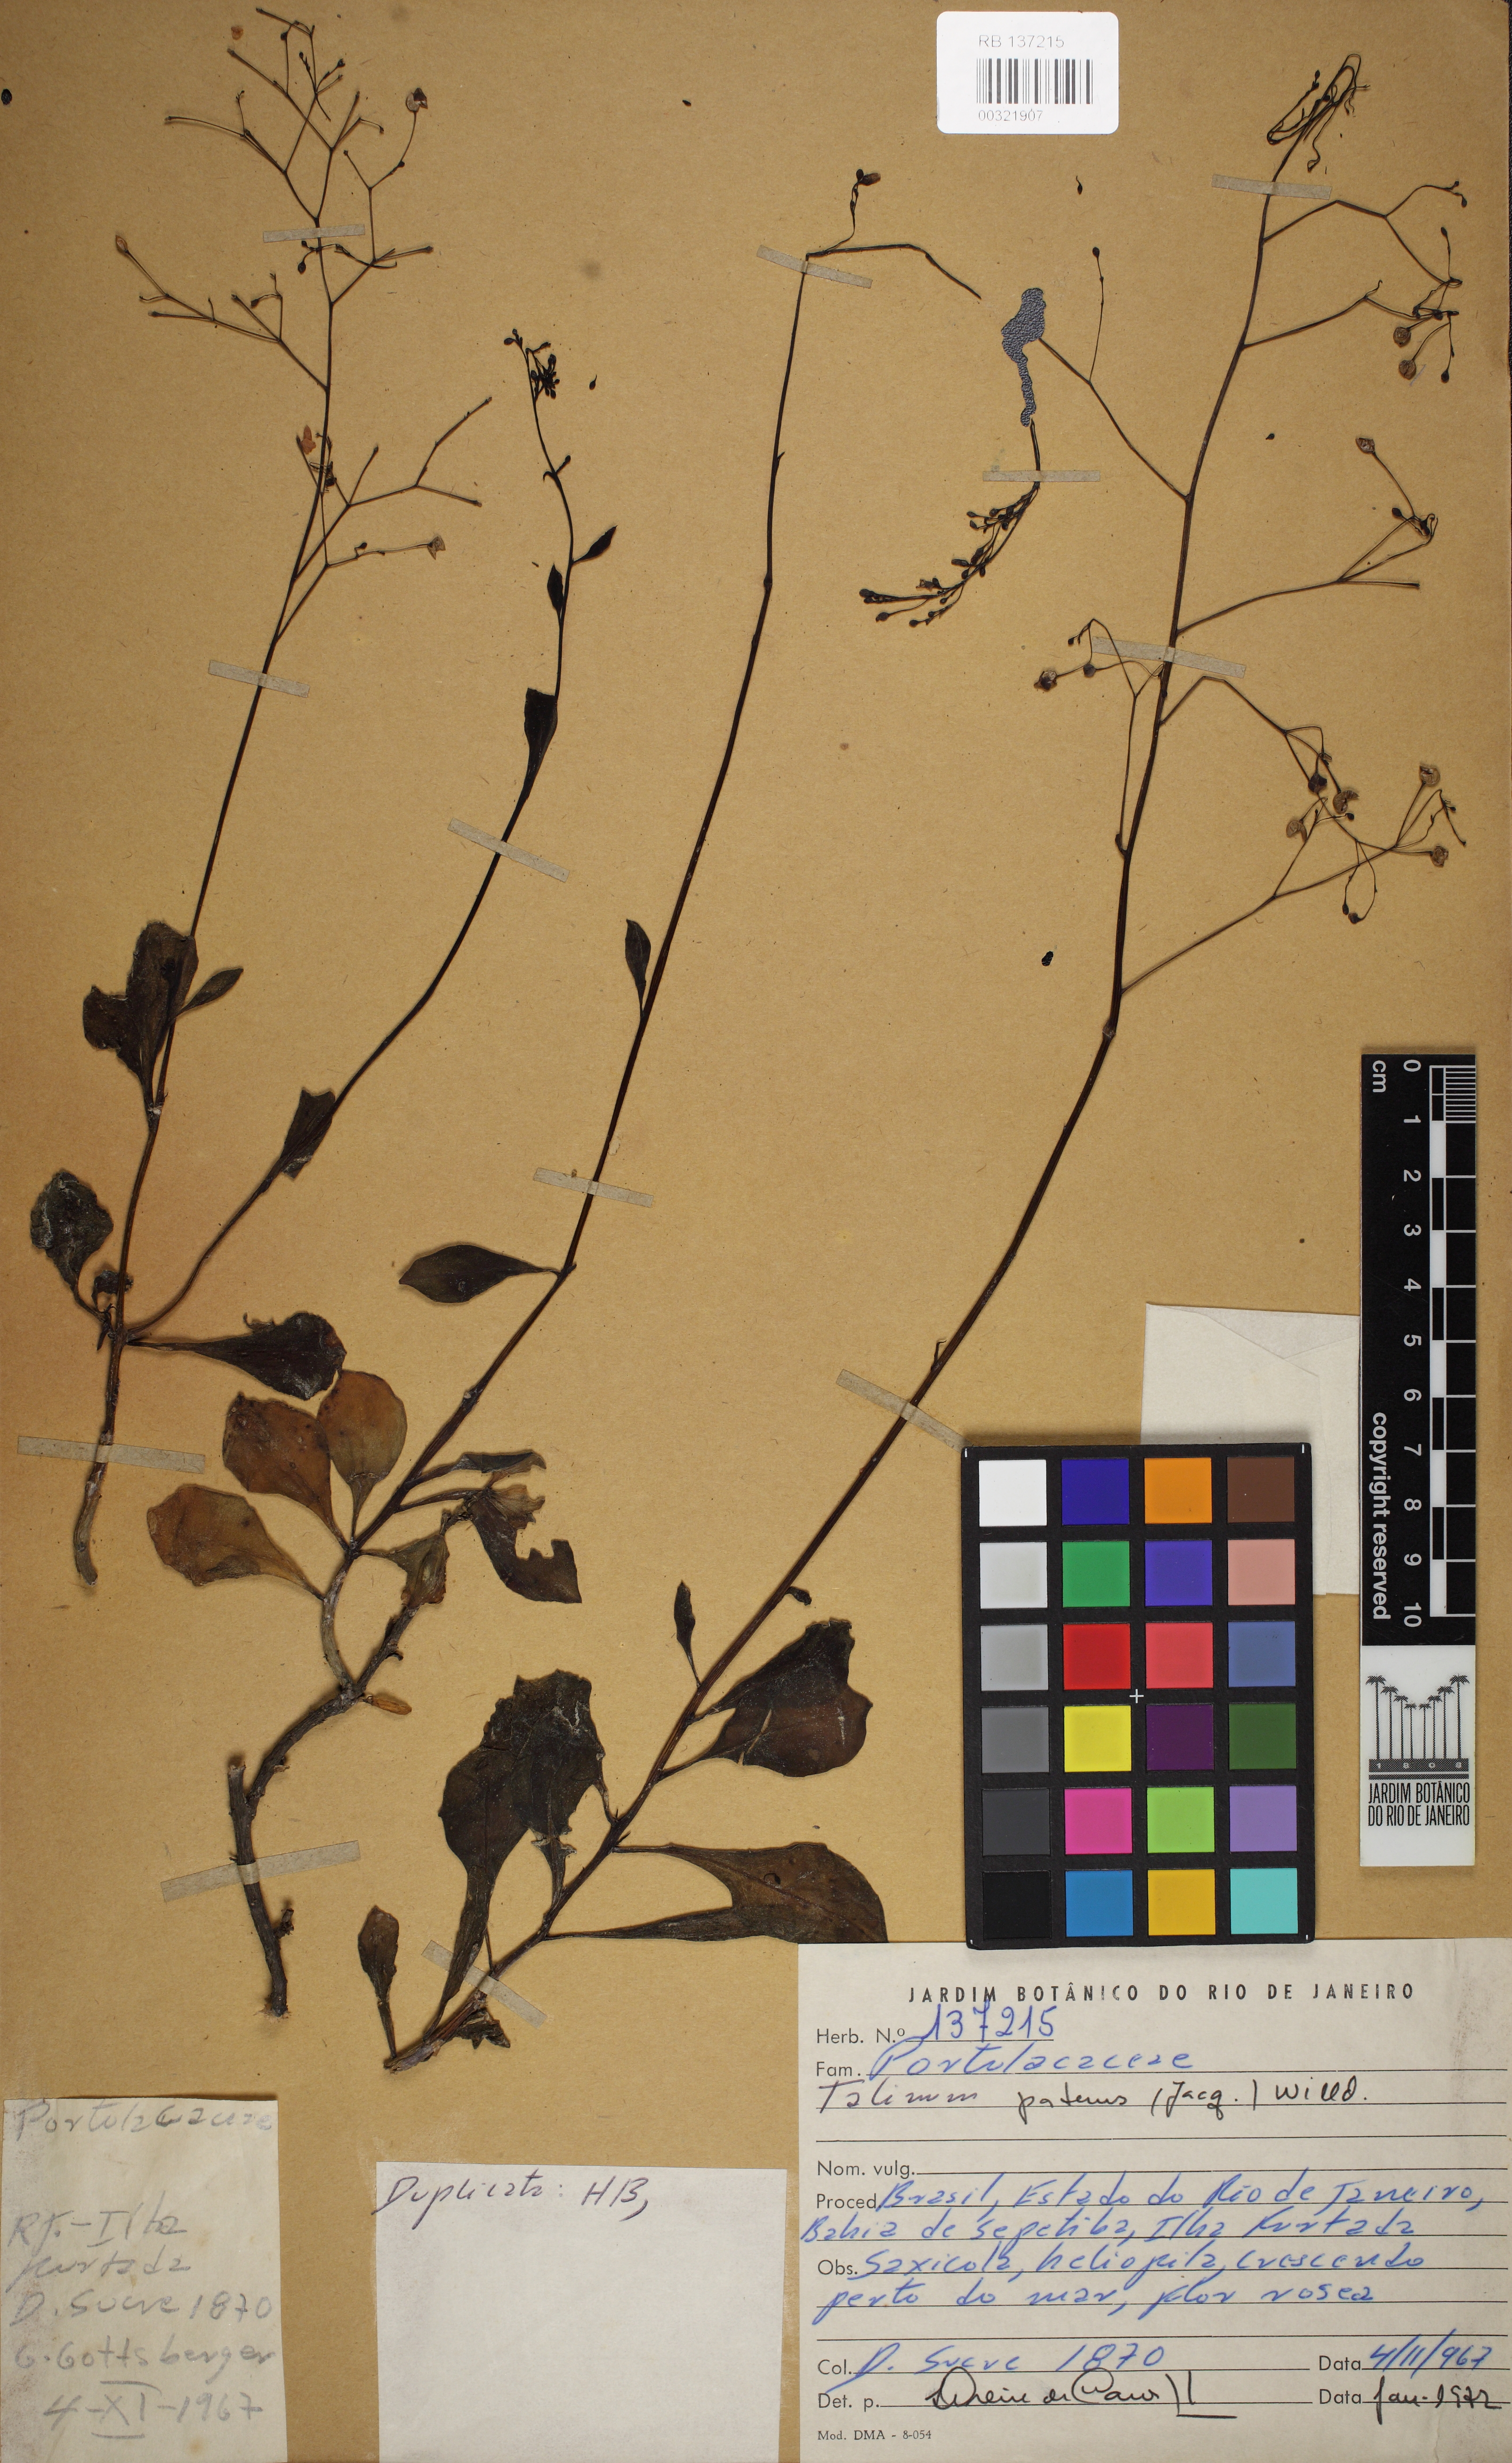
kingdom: Plantae
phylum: Tracheophyta
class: Magnoliopsida
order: Caryophyllales
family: Talinaceae
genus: Talinum
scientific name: Talinum paniculatum
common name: Jewels of opar
